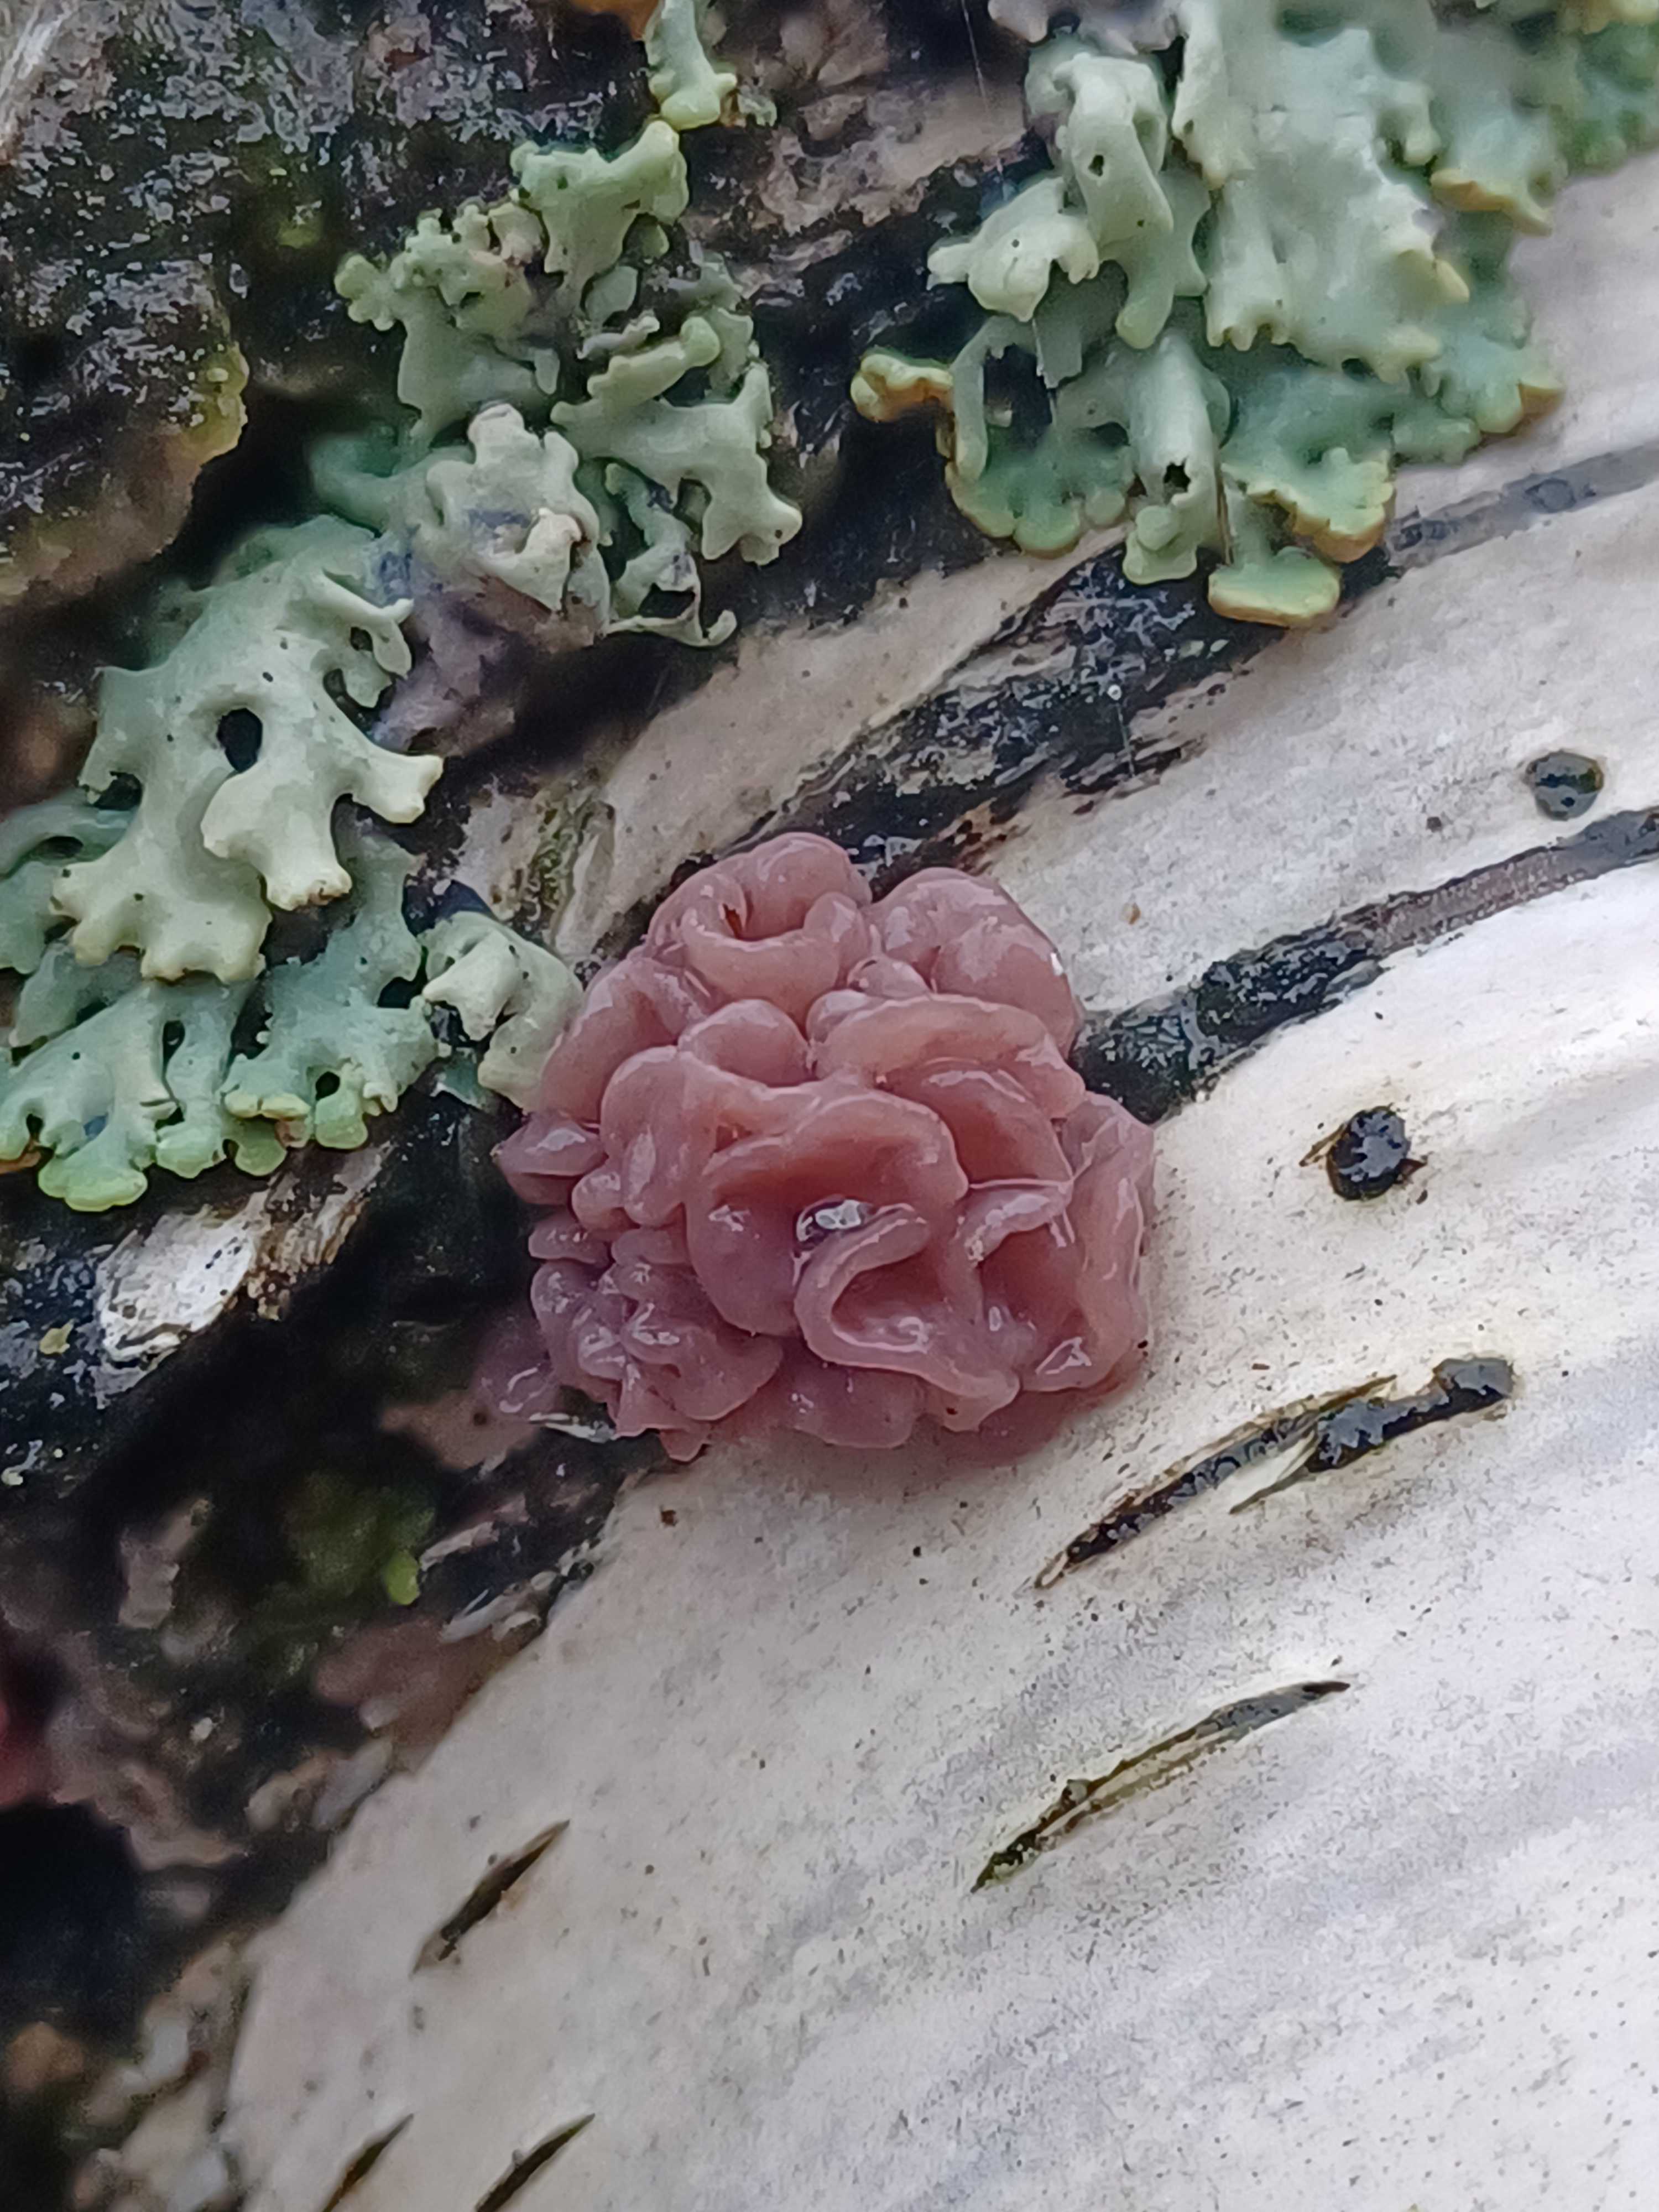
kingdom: Fungi
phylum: Ascomycota
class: Leotiomycetes
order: Helotiales
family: Gelatinodiscaceae
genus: Ascocoryne
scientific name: Ascocoryne sarcoides
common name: rødlilla sejskive
